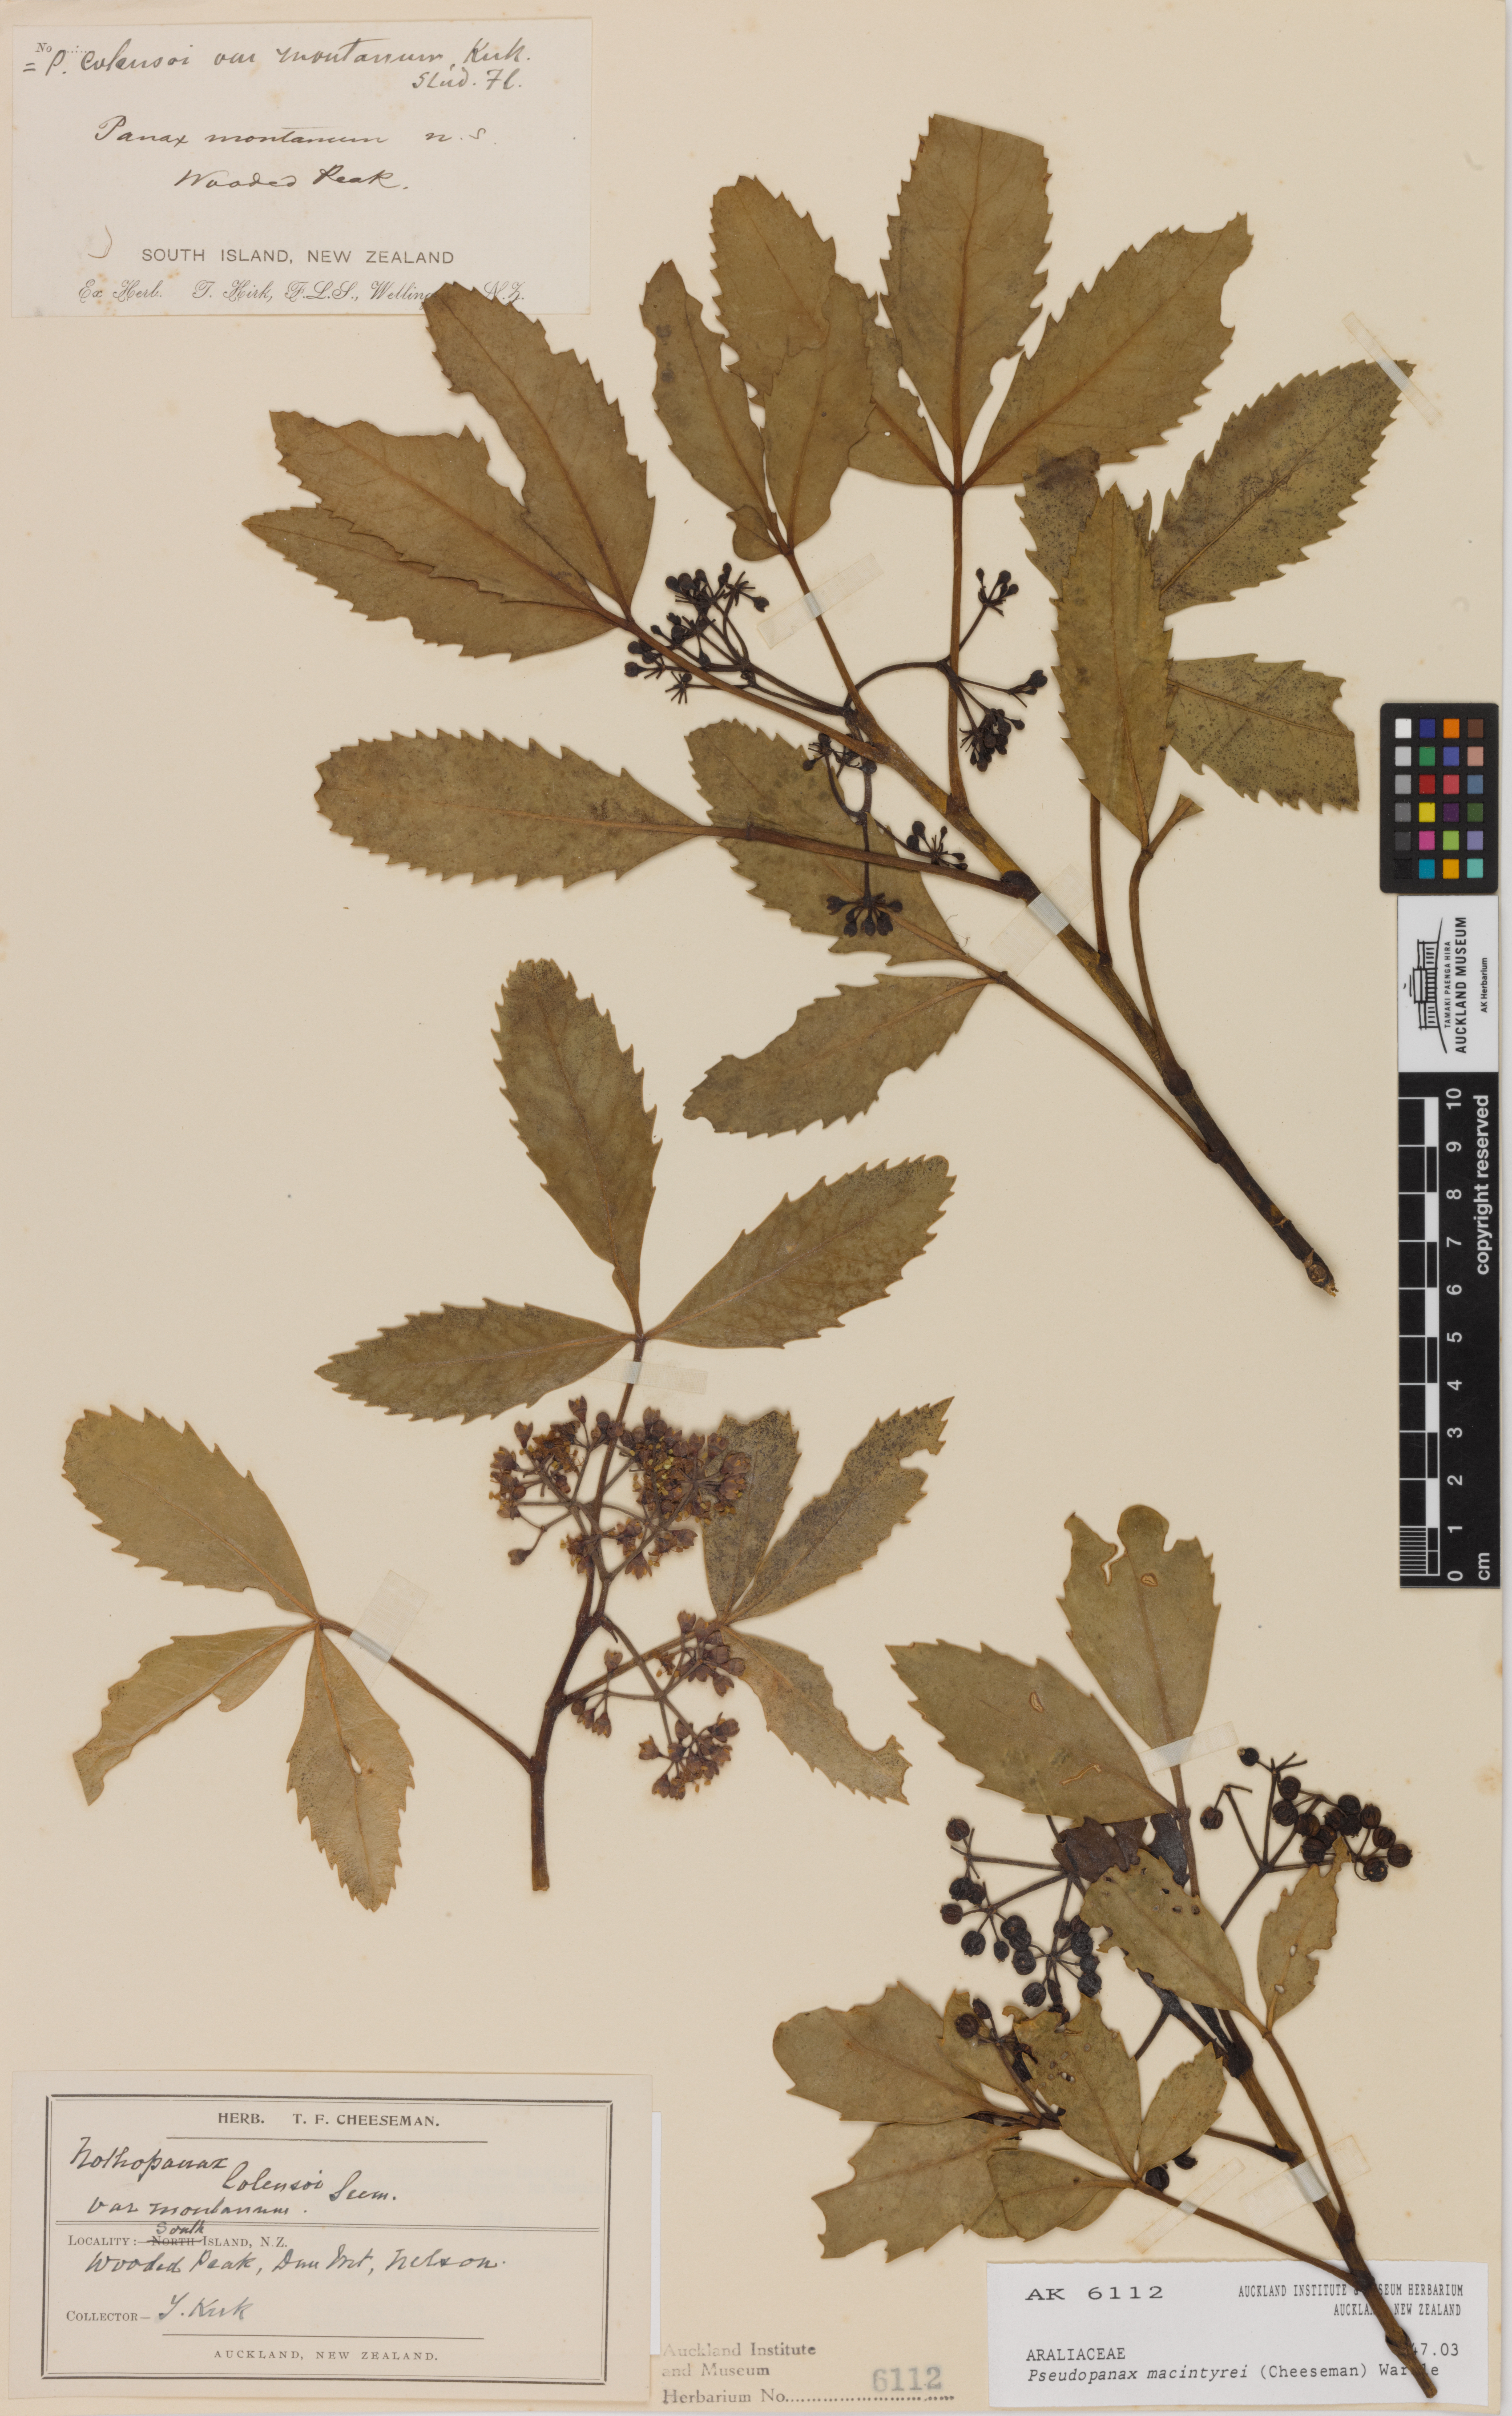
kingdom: Plantae
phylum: Tracheophyta
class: Magnoliopsida
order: Apiales
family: Araliaceae
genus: Neopanax
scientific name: Neopanax macintyrei
